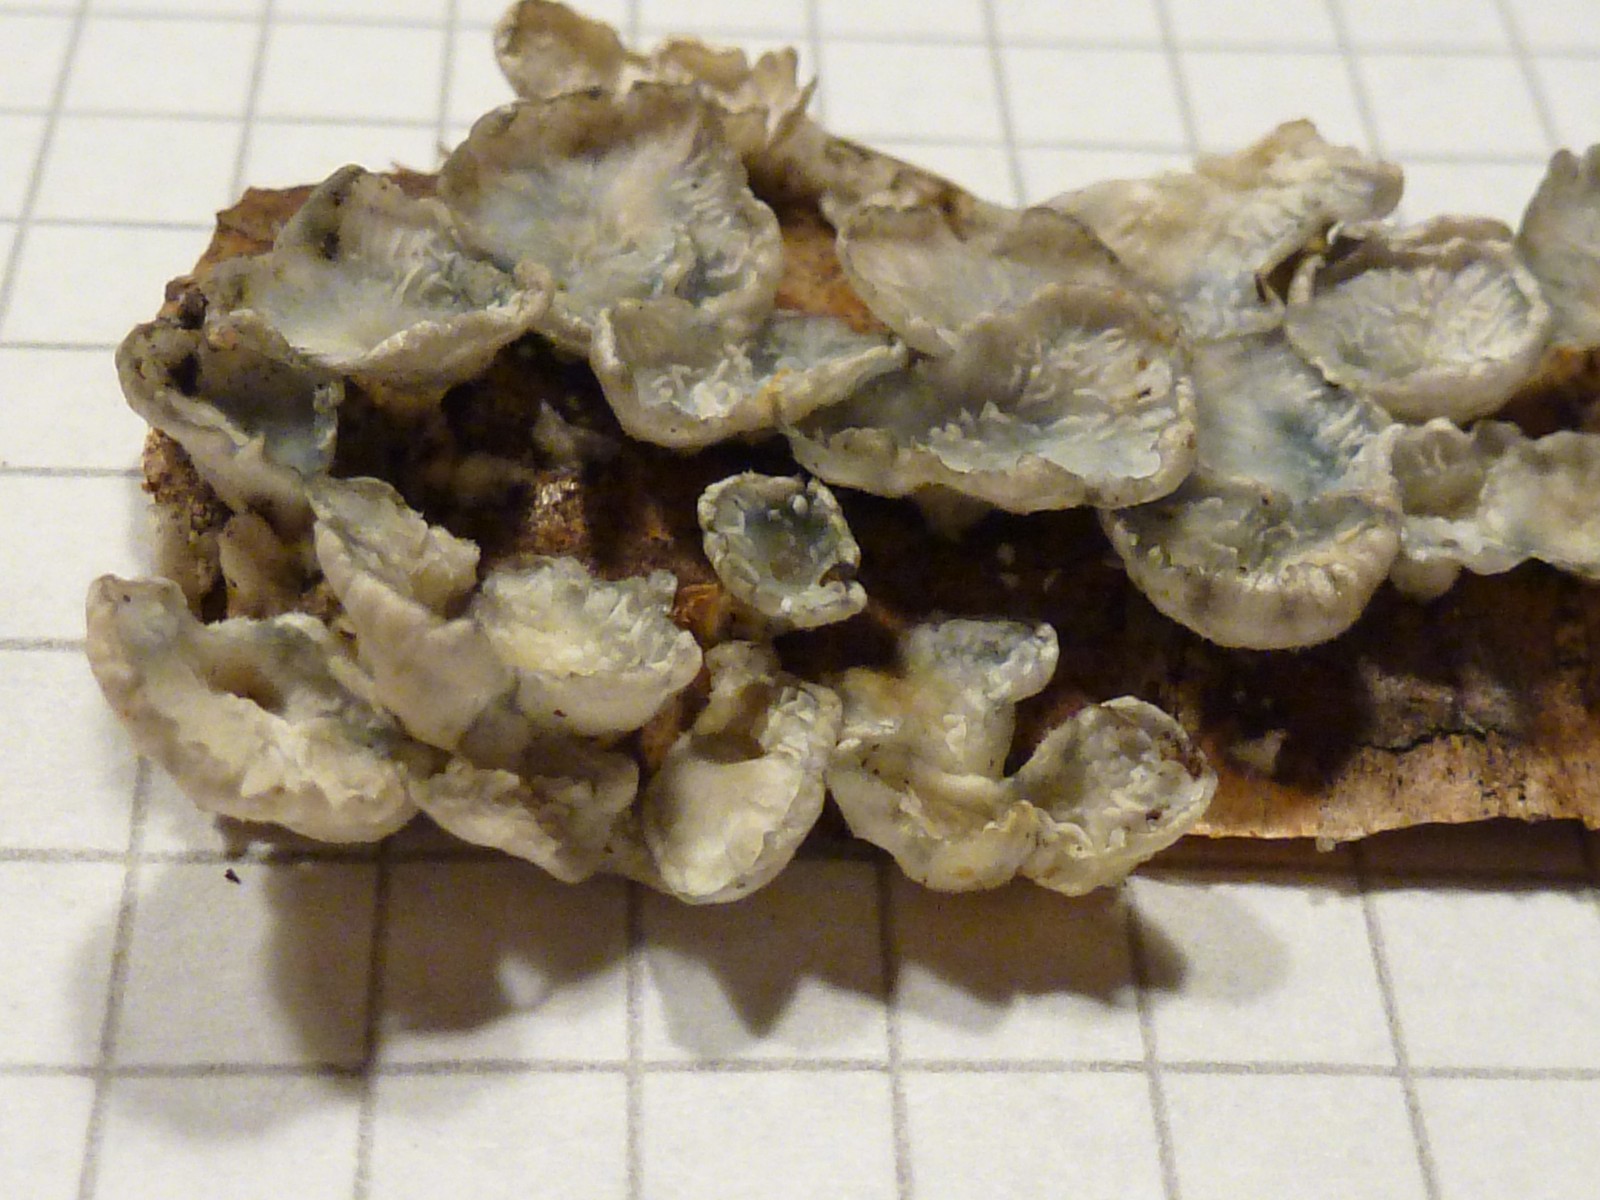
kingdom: Fungi
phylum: Basidiomycota
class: Agaricomycetes
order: Amylocorticiales
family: Amylocorticiaceae
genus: Plicaturopsis
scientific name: Plicaturopsis crispa
